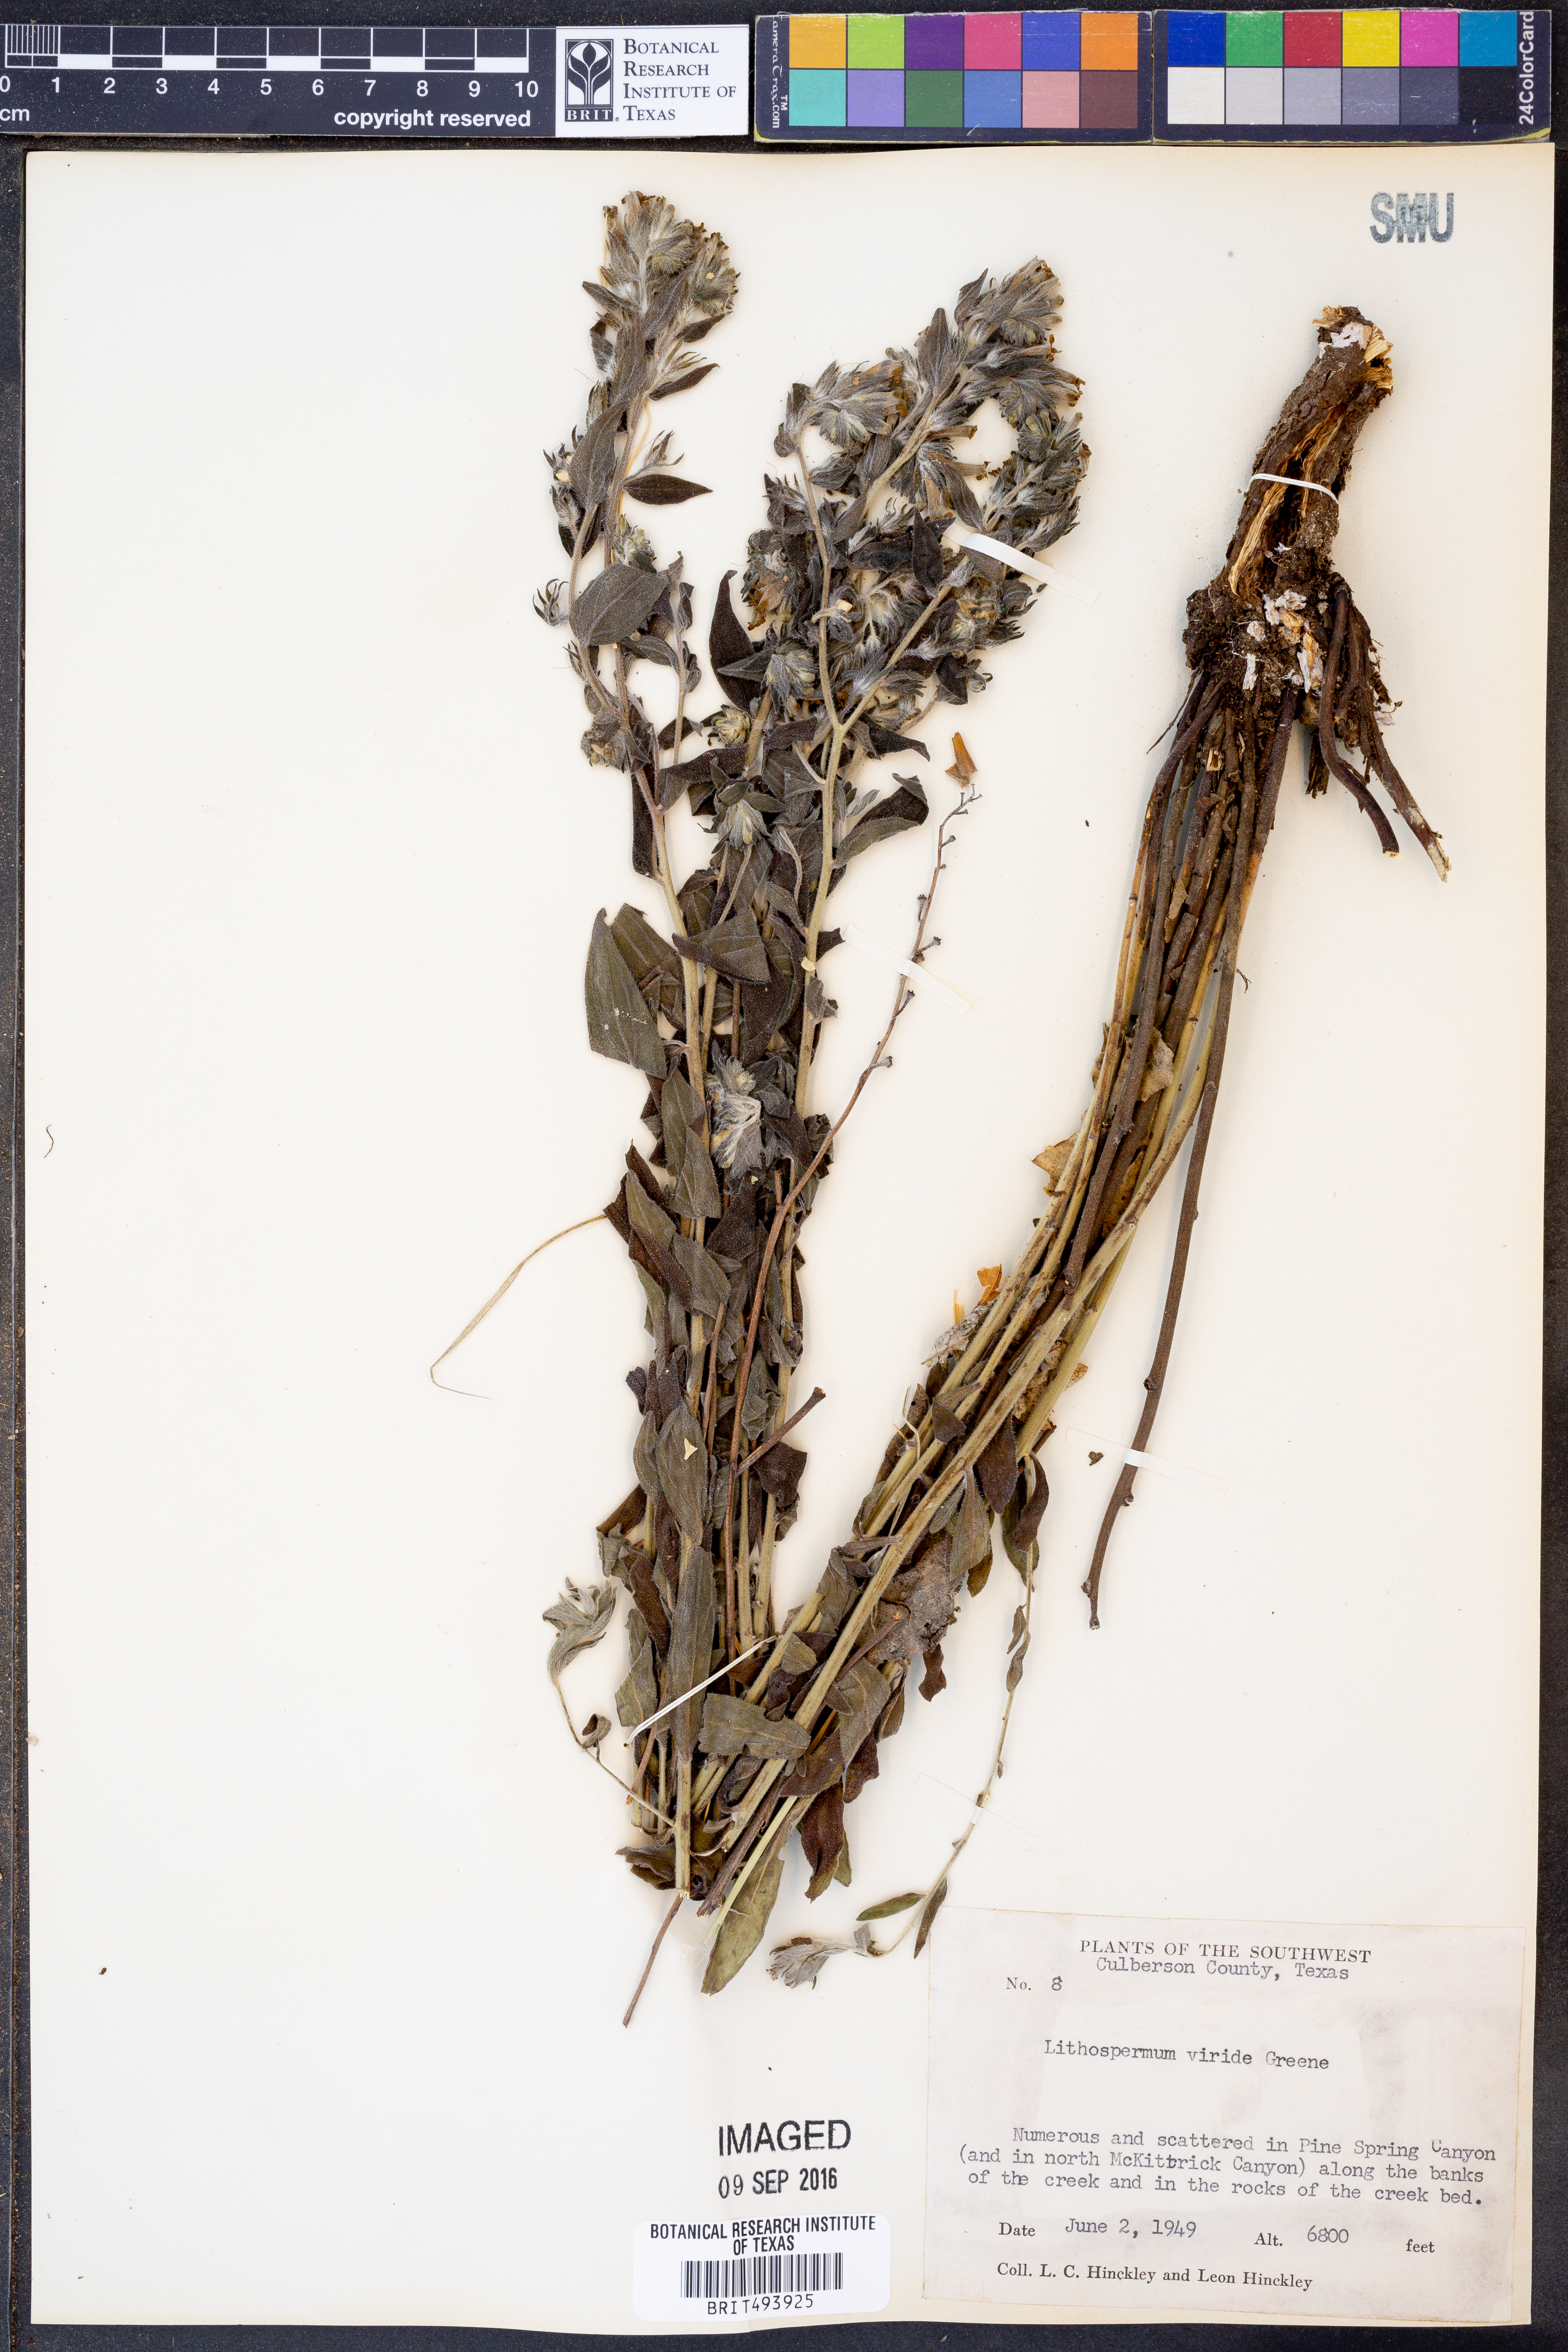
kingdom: Plantae
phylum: Tracheophyta
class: Magnoliopsida
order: Boraginales
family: Boraginaceae
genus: Lithospermum
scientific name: Lithospermum viride
